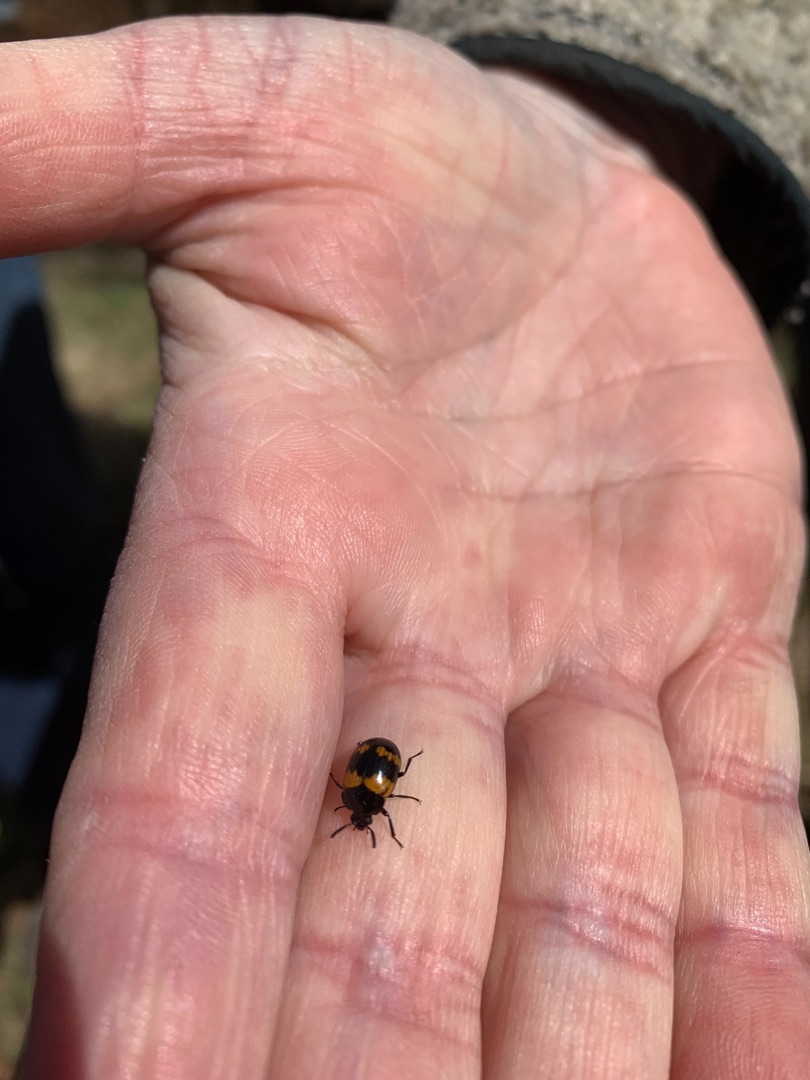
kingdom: Animalia
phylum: Arthropoda
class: Insecta
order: Coleoptera
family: Tenebrionidae
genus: Diaperis
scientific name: Diaperis boleti
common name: Tigerskyggebille
